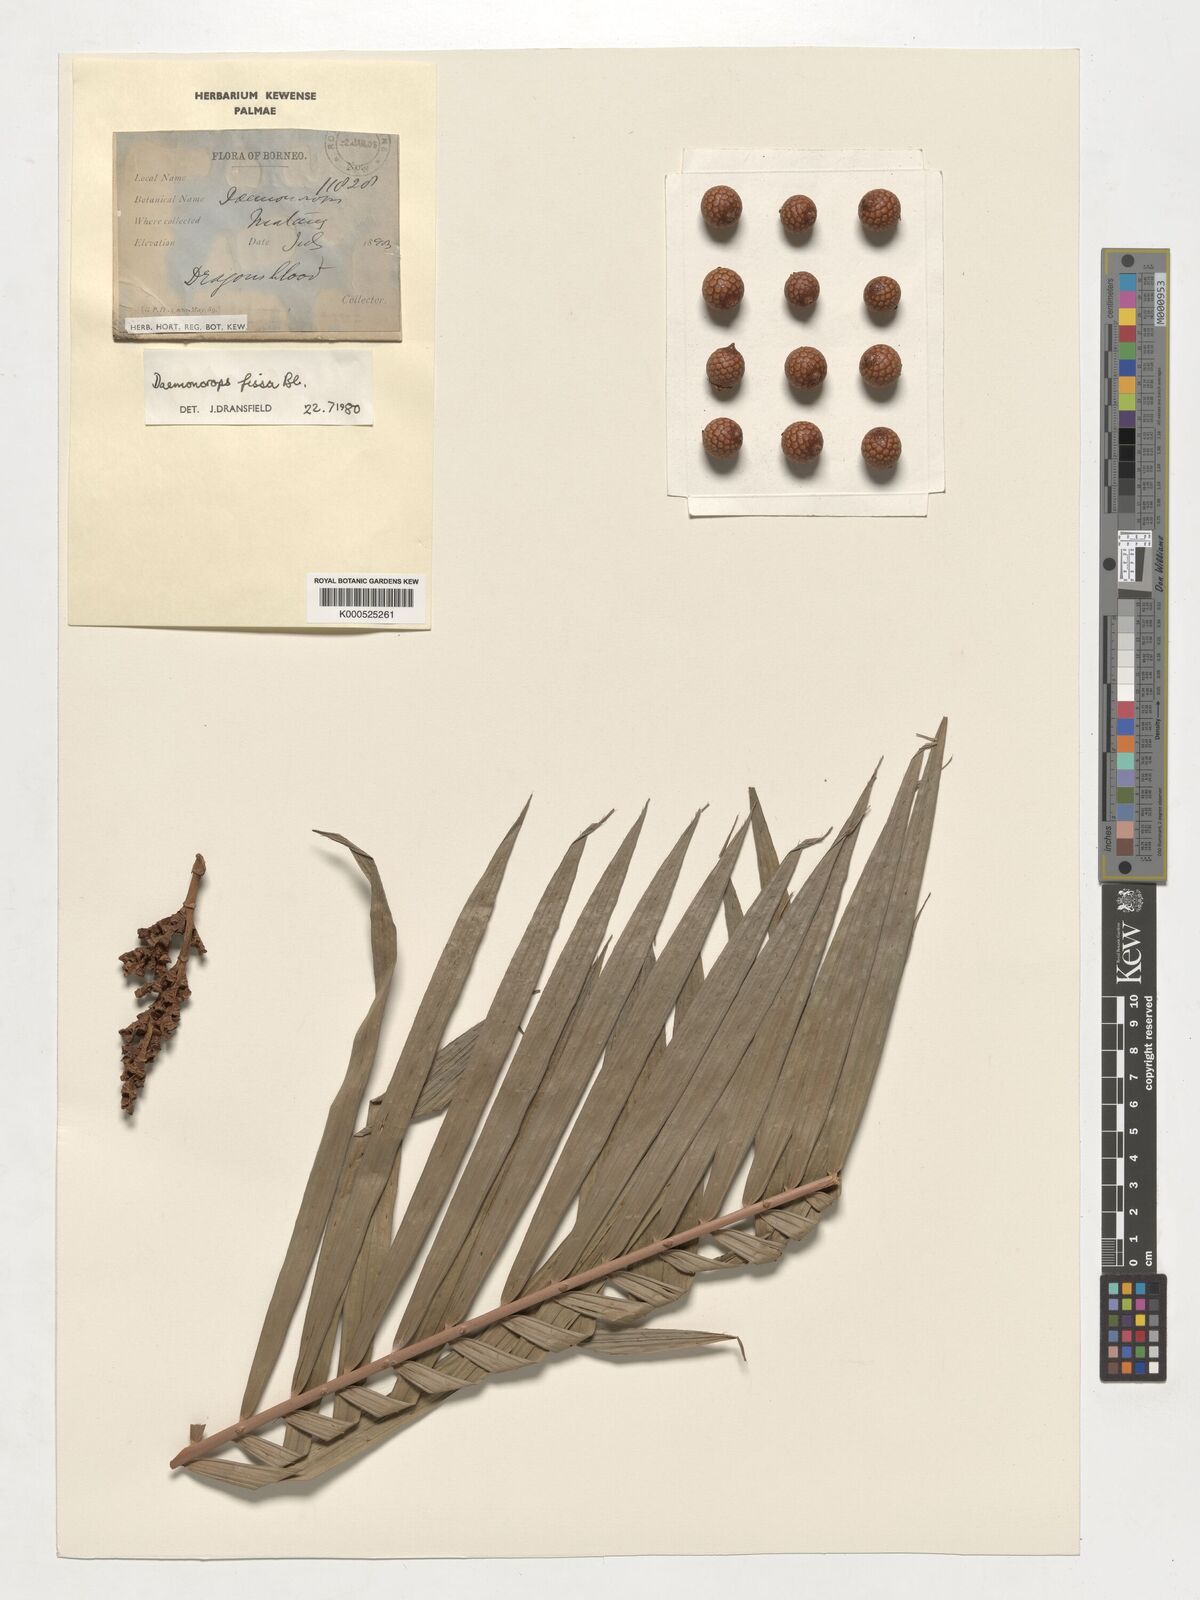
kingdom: Plantae
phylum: Tracheophyta
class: Liliopsida
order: Arecales
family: Arecaceae
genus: Calamus
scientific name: Calamus melanochaetes
